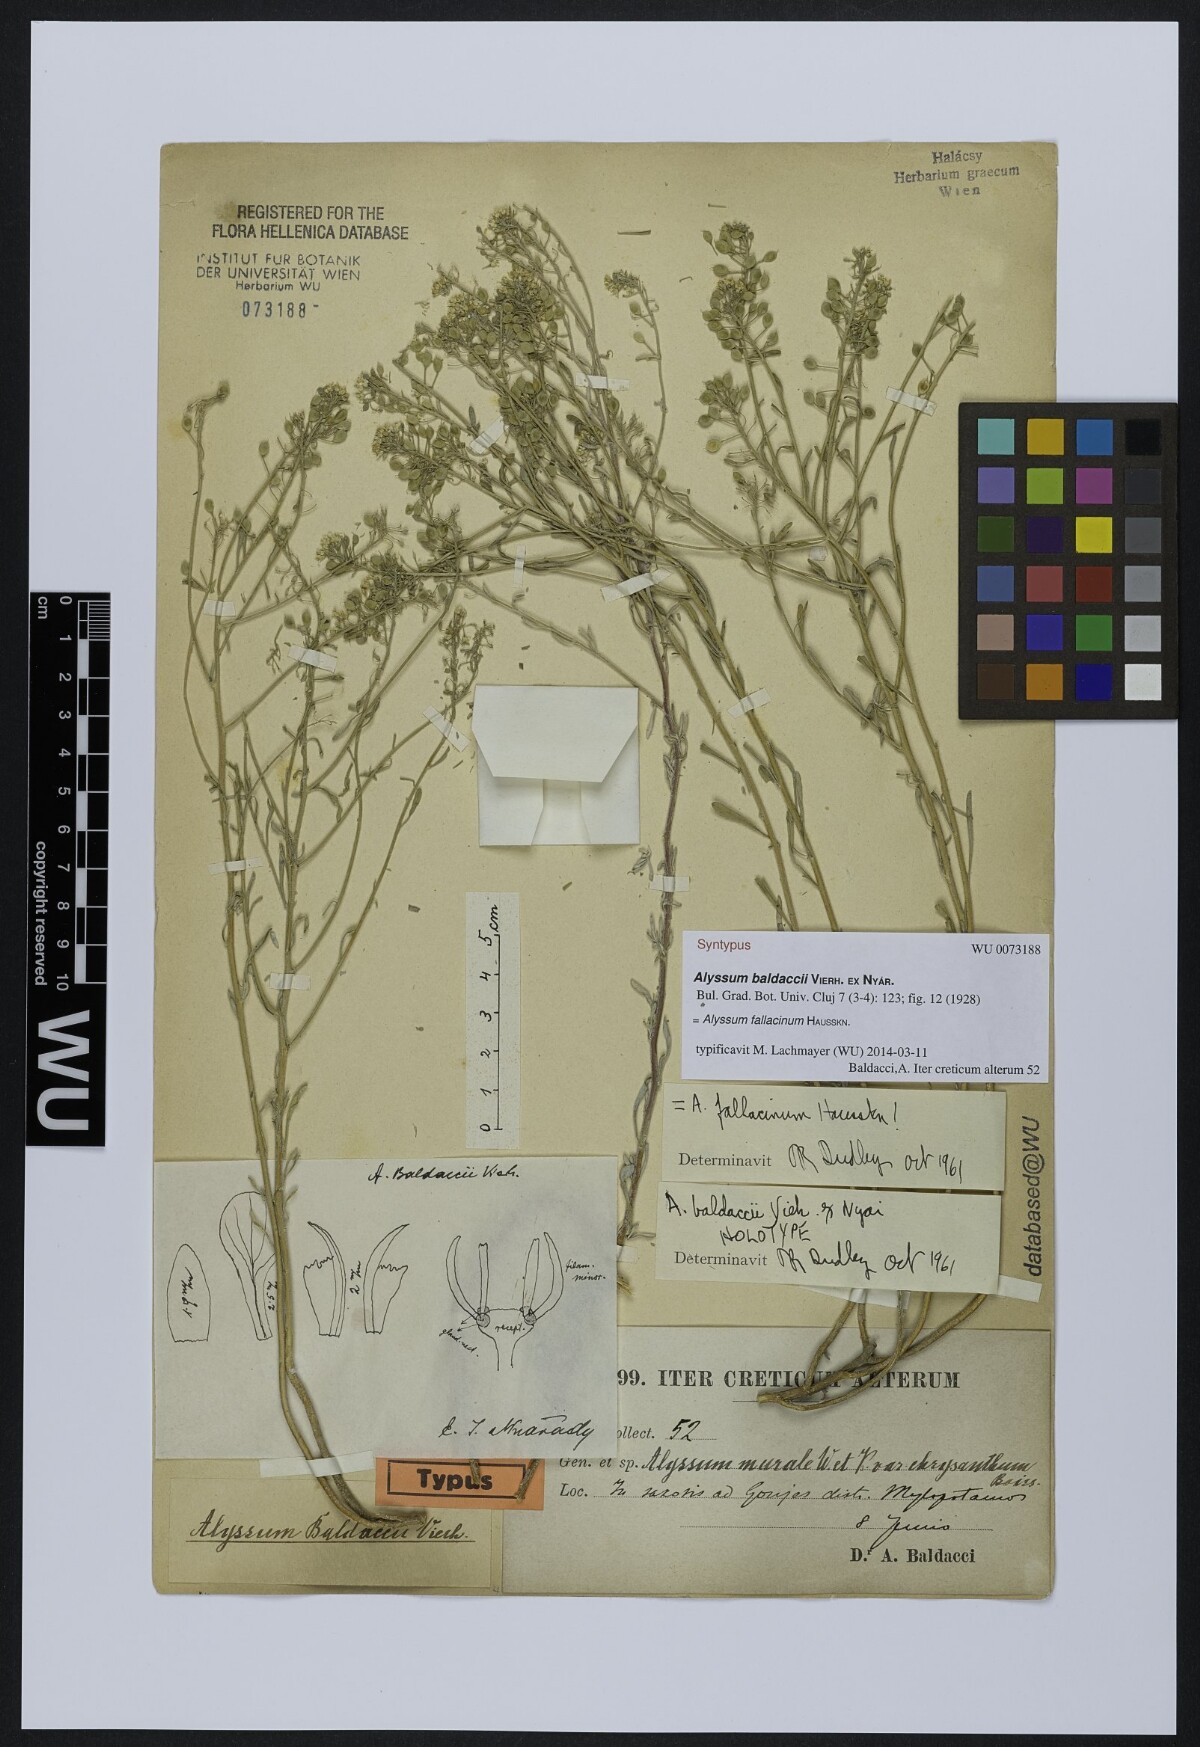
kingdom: Plantae
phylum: Tracheophyta
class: Magnoliopsida
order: Brassicales
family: Brassicaceae
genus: Odontarrhena
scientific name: Odontarrhena fallacina
